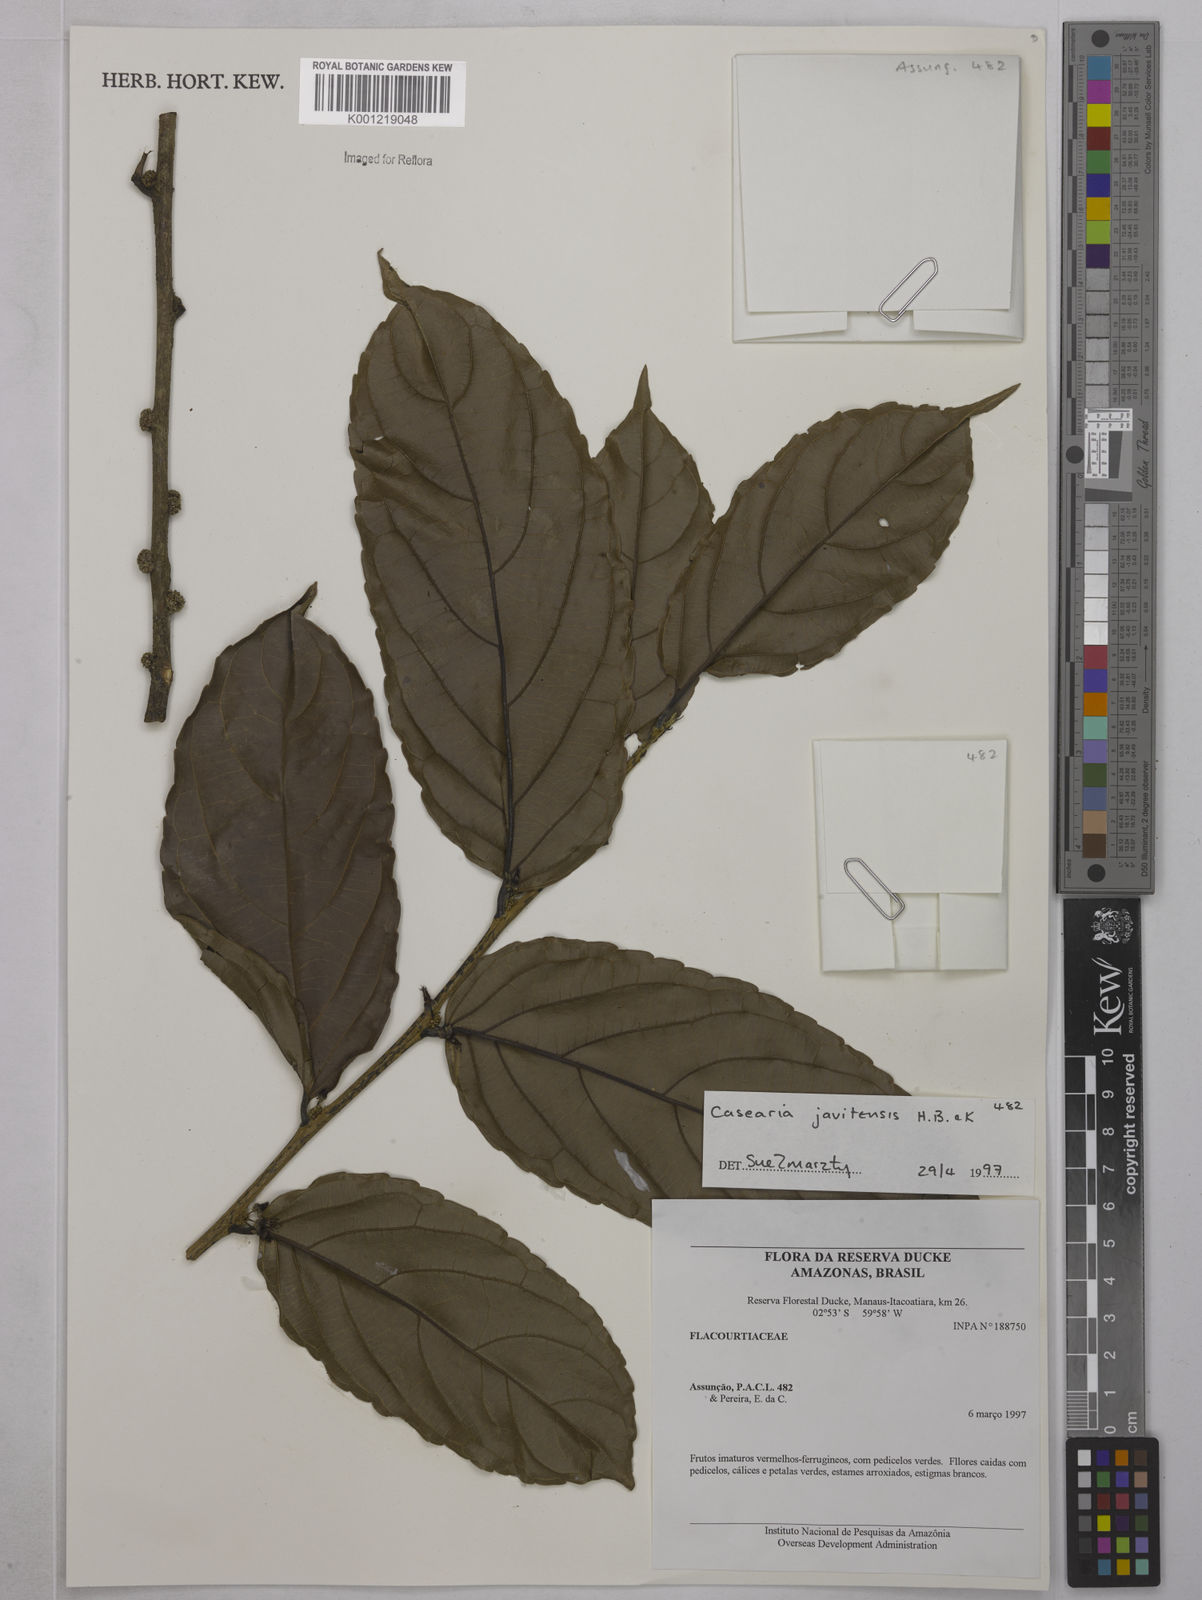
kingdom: Plantae
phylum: Tracheophyta
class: Magnoliopsida
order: Malpighiales
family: Salicaceae
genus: Piparea
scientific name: Piparea multiflora
